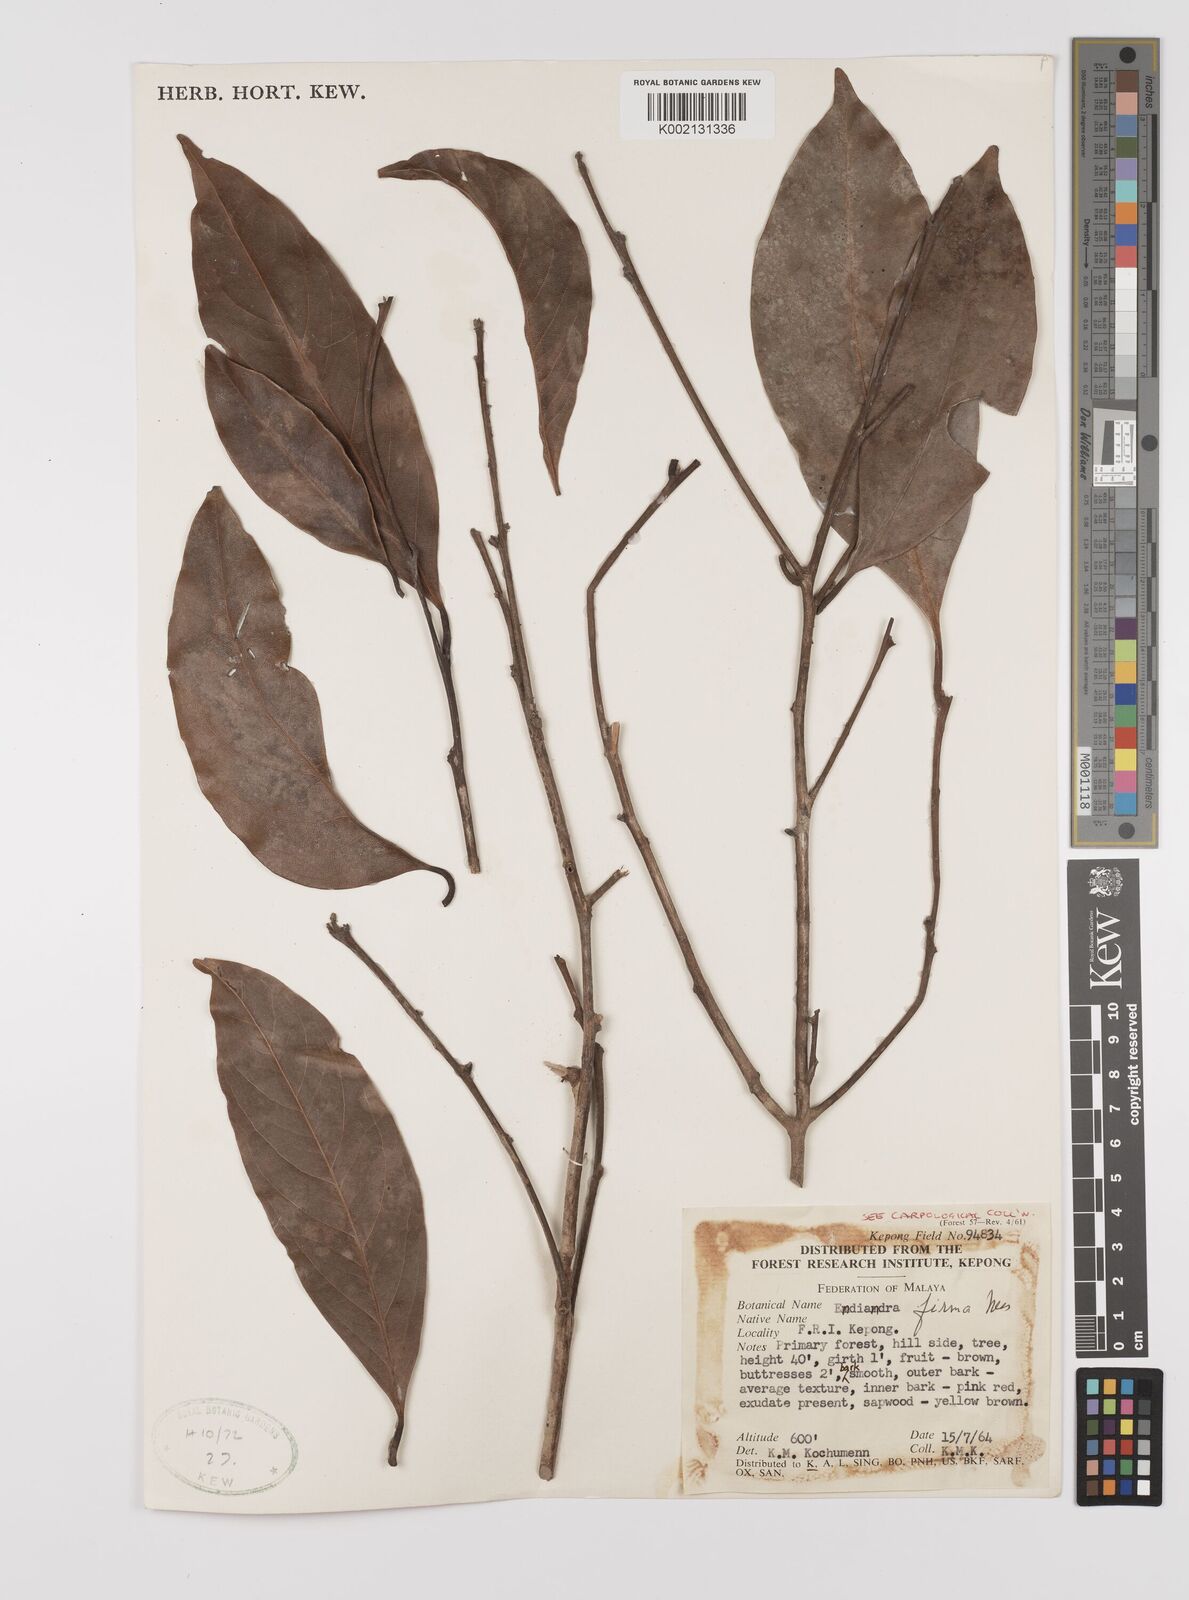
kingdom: Plantae
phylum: Tracheophyta
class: Magnoliopsida
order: Laurales
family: Lauraceae
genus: Endiandra
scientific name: Endiandra firma
